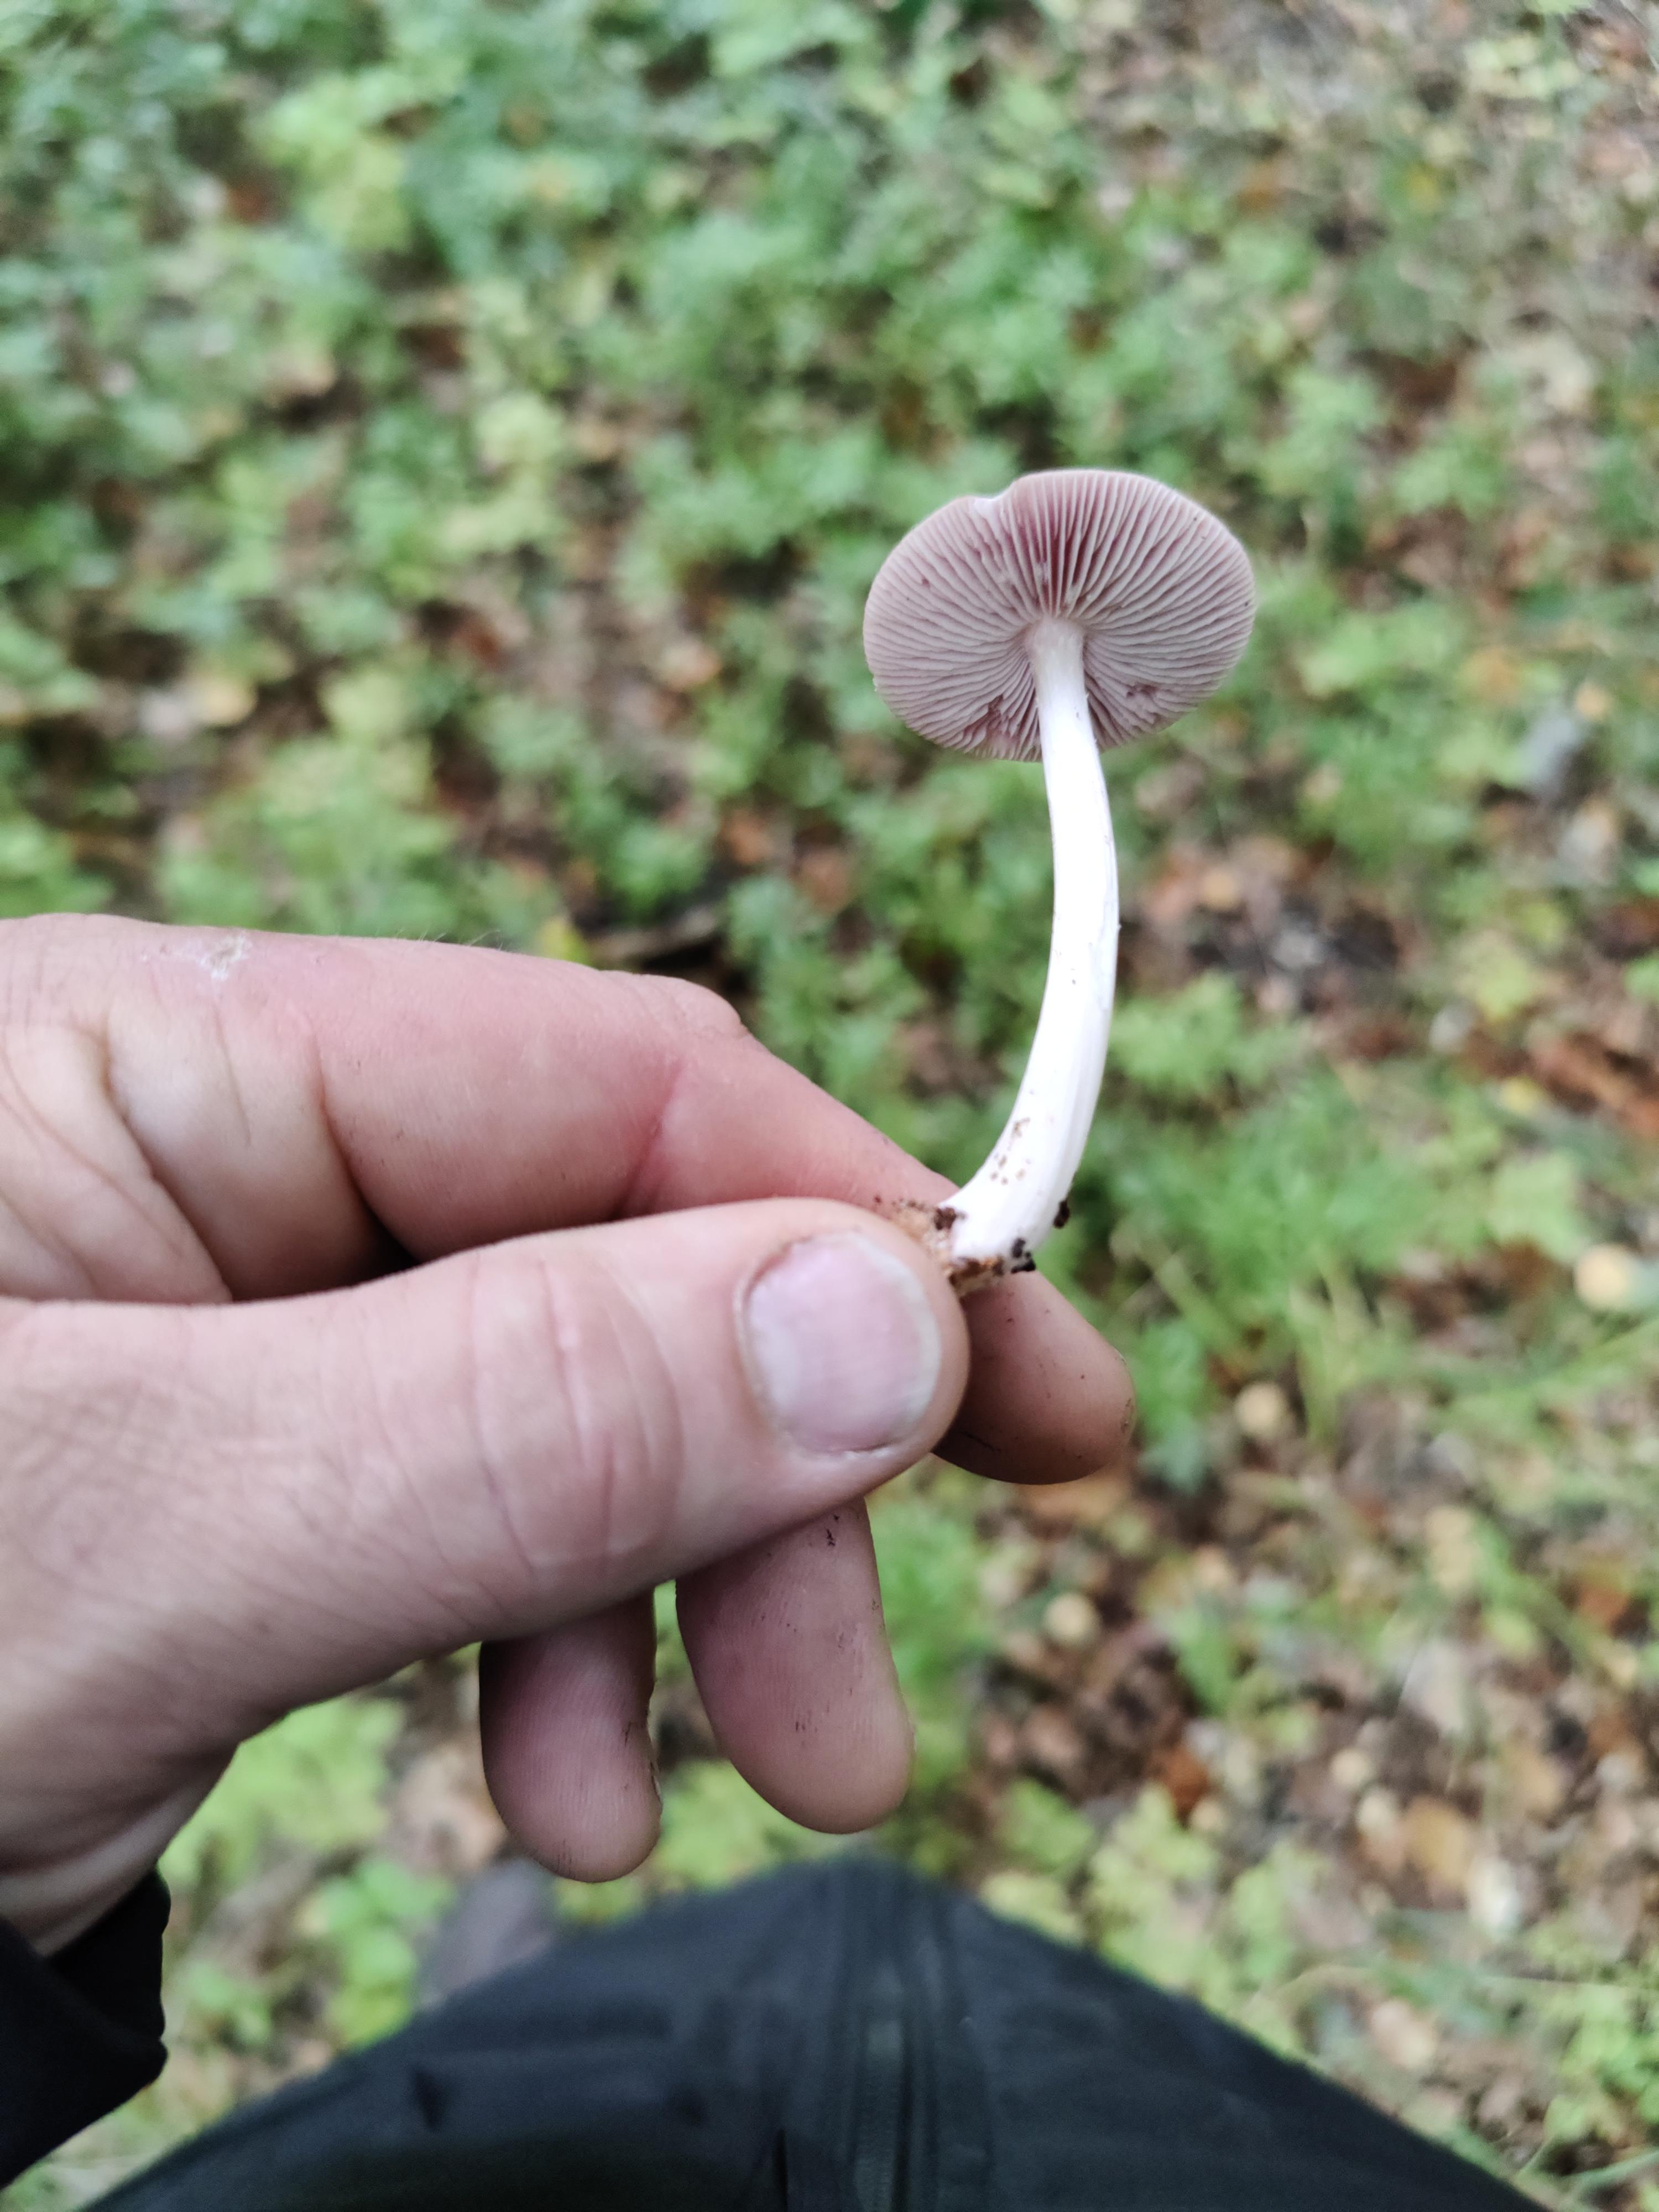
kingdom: Fungi
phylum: Basidiomycota
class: Agaricomycetes
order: Agaricales
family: Mycenaceae
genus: Mycena
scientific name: Mycena rosea
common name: rosa huesvamp
